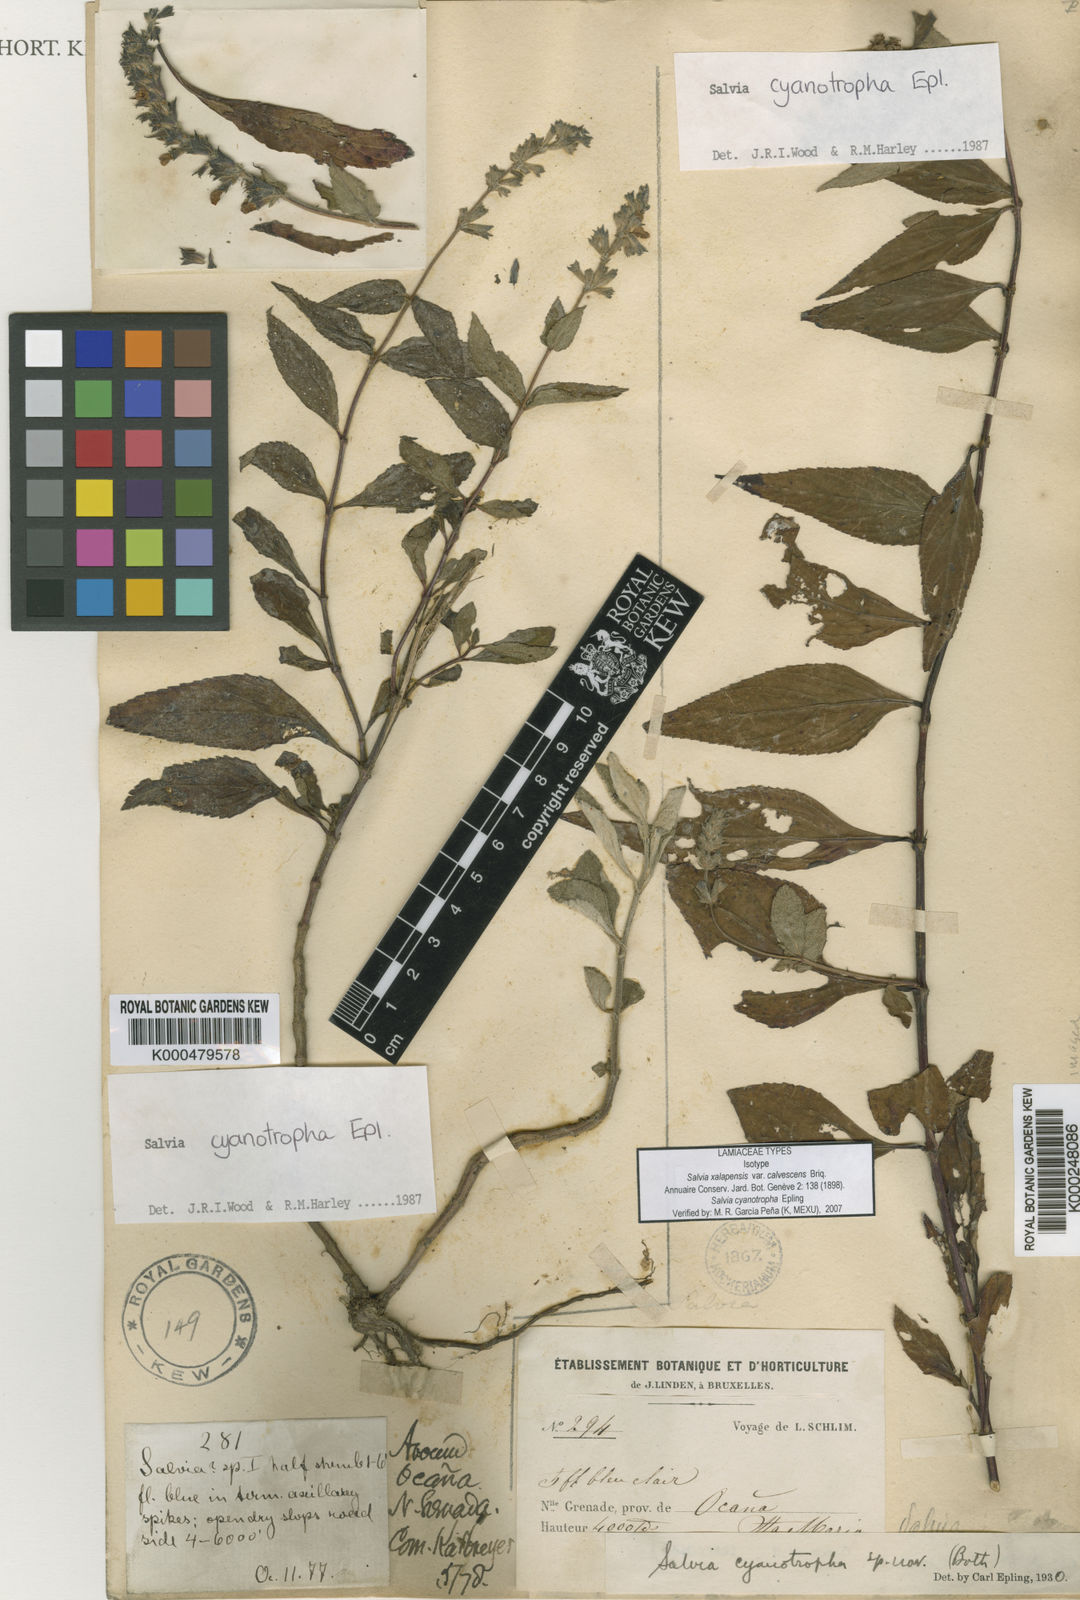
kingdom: Plantae
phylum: Tracheophyta
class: Magnoliopsida
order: Lamiales
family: Lamiaceae
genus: Salvia
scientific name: Salvia cyanotropha
